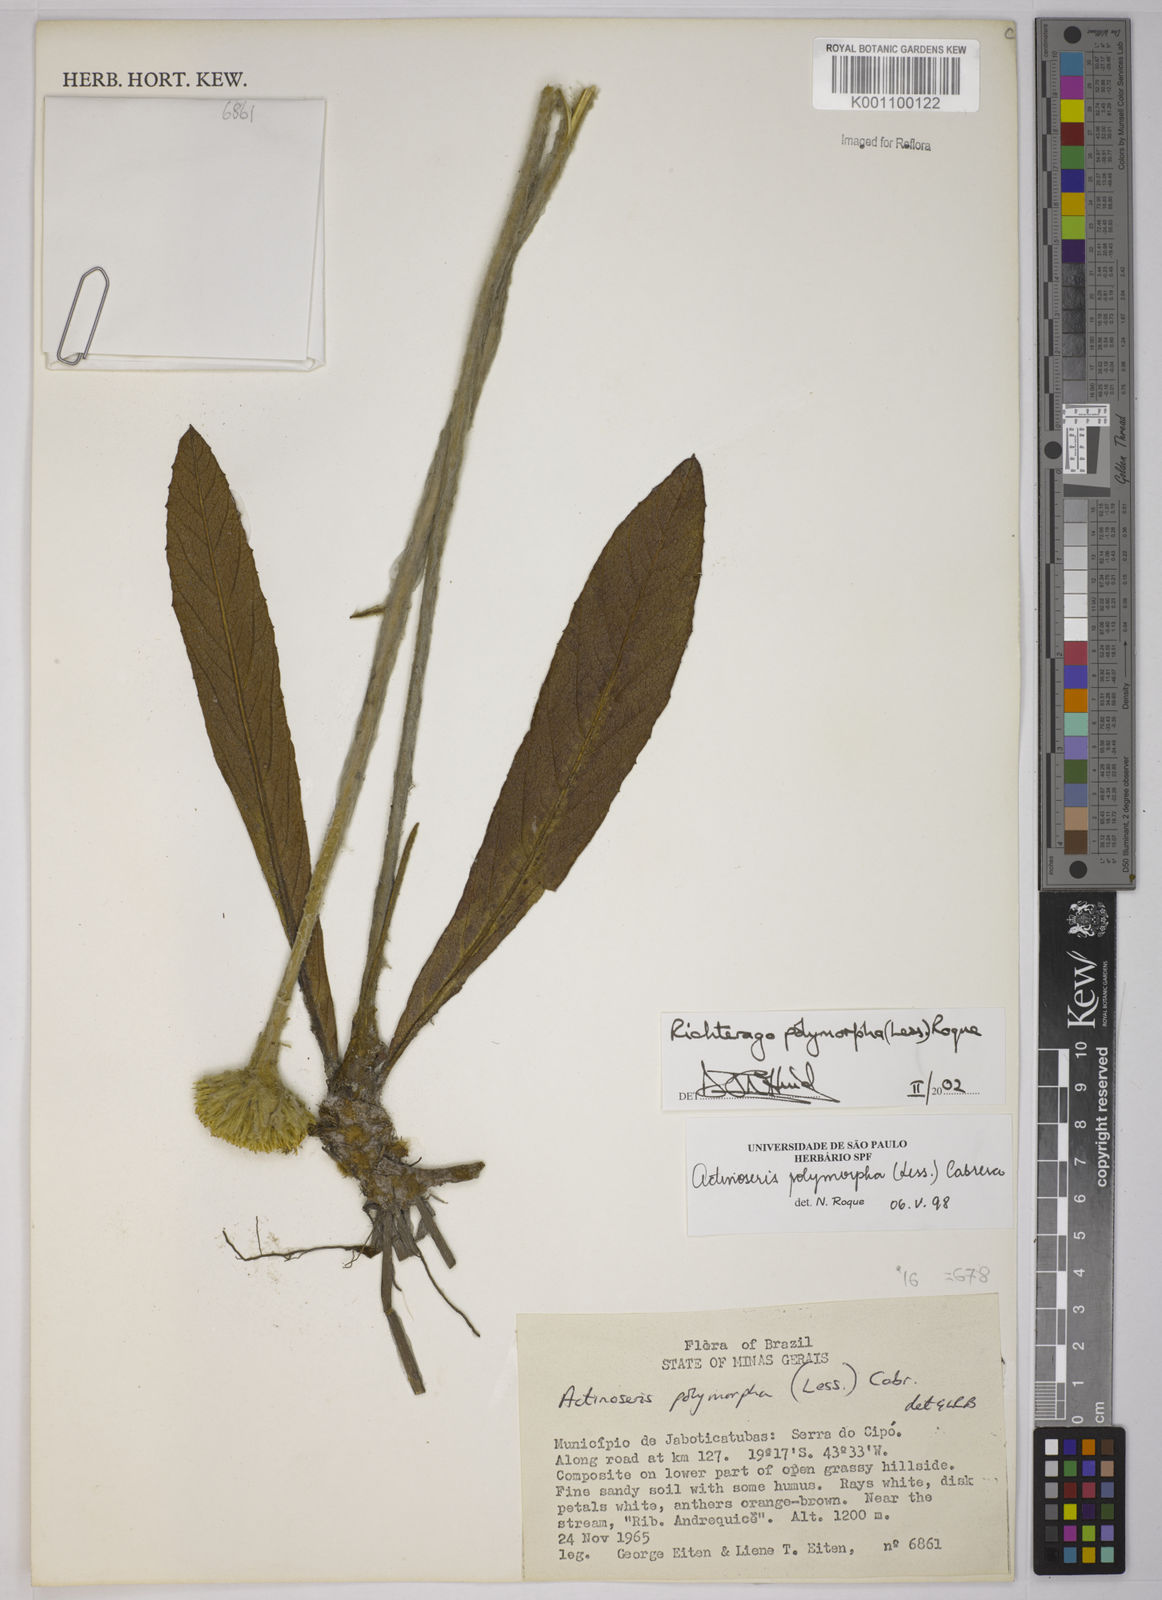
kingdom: Plantae
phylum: Tracheophyta
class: Magnoliopsida
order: Asterales
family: Asteraceae
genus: Richterago
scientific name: Richterago polymorpha
